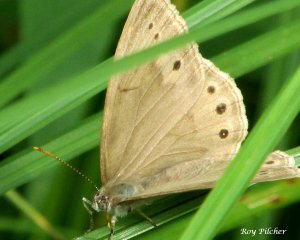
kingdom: Animalia
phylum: Arthropoda
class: Insecta
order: Lepidoptera
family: Nymphalidae
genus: Lethe
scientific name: Lethe eurydice
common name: Eyed Brown
